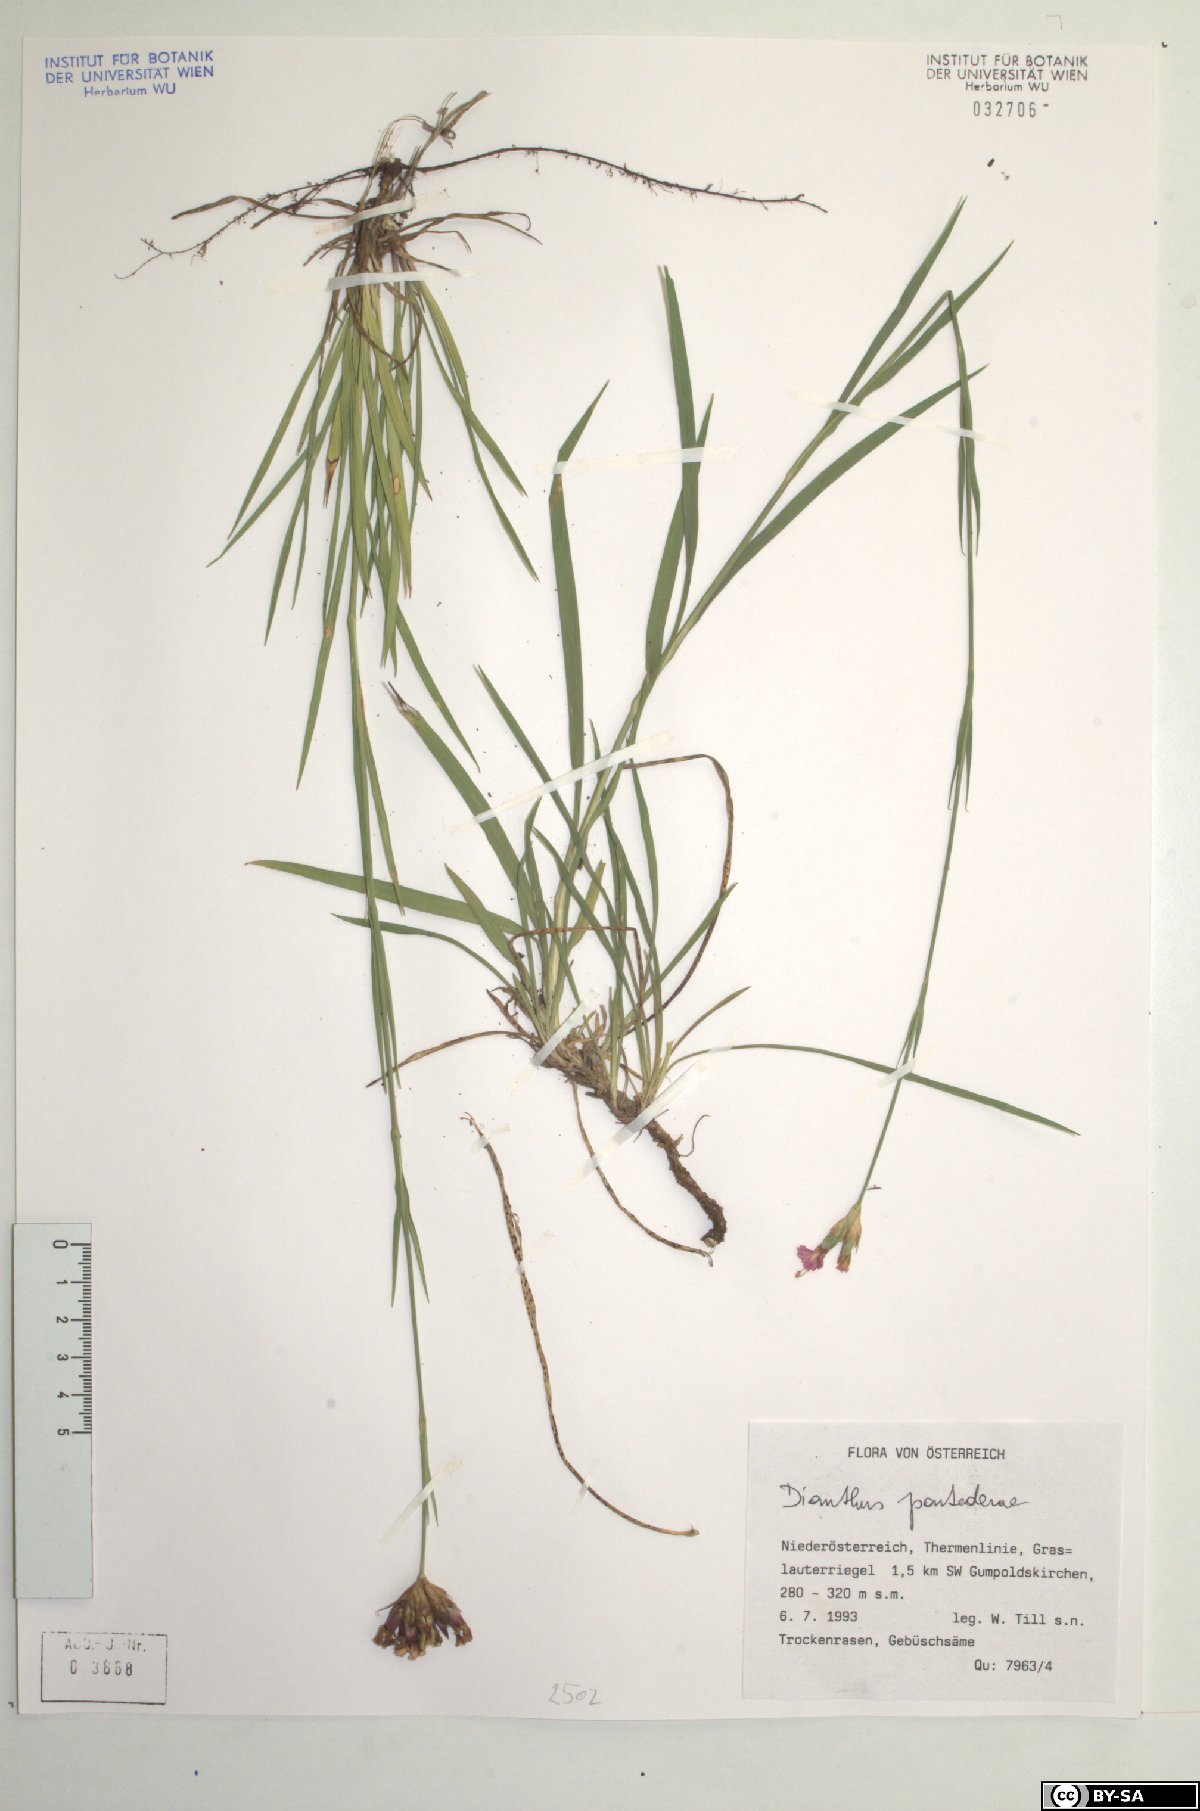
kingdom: Plantae
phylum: Tracheophyta
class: Magnoliopsida
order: Caryophyllales
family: Caryophyllaceae
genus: Dianthus
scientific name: Dianthus pontederae
